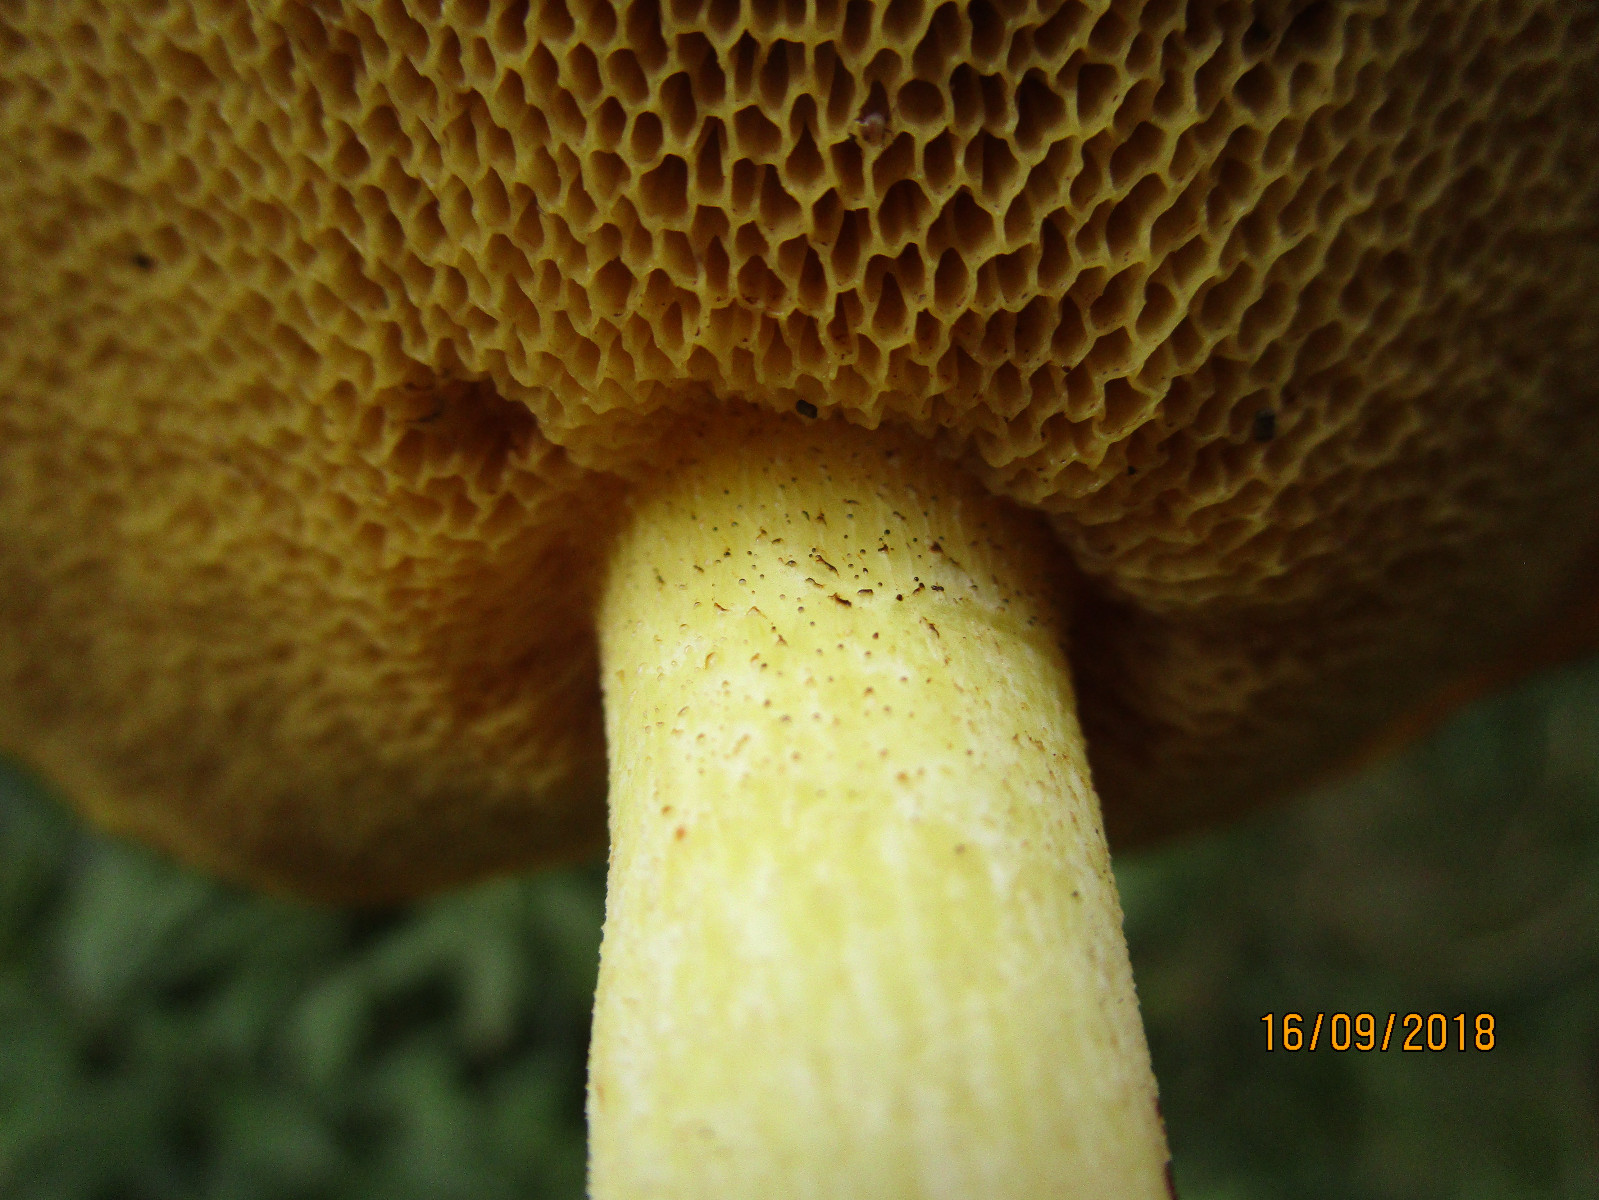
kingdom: Fungi
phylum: Basidiomycota
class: Agaricomycetes
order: Boletales
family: Suillaceae
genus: Suillus
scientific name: Suillus granulatus
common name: kornet slimrørhat
